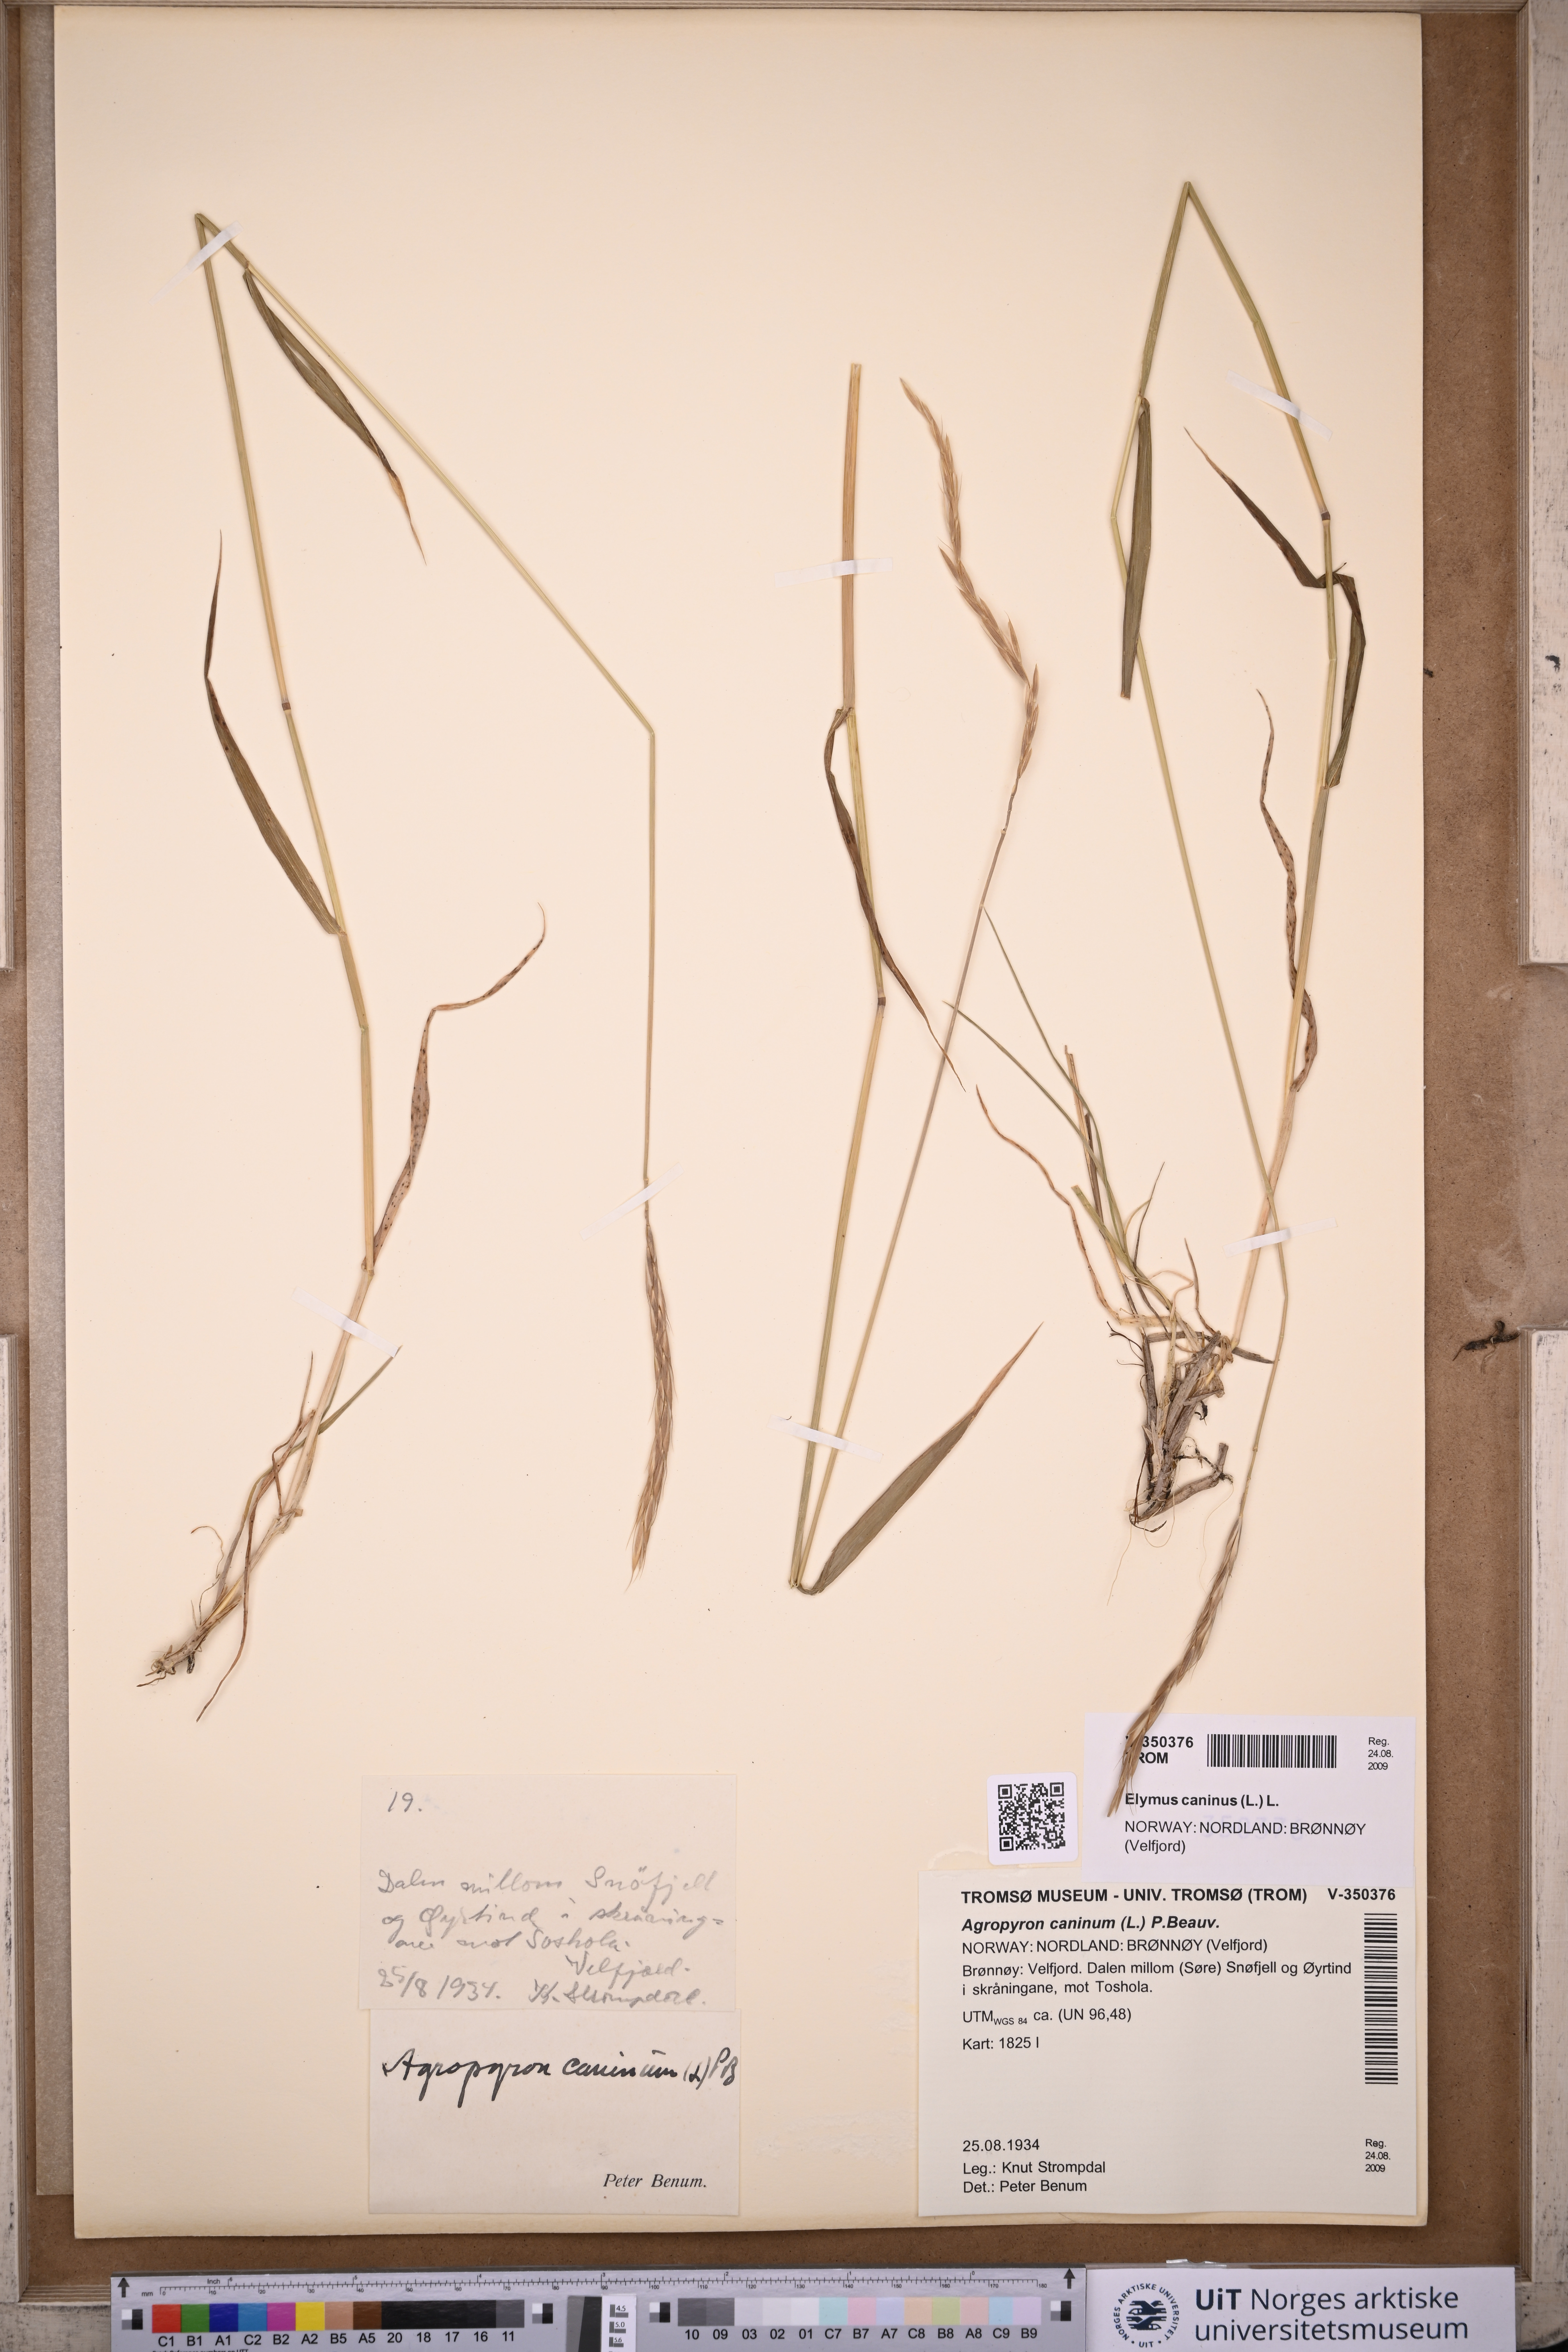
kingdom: Plantae
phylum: Tracheophyta
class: Liliopsida
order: Poales
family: Poaceae
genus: Elymus
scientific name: Elymus caninus
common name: Bearded couch
